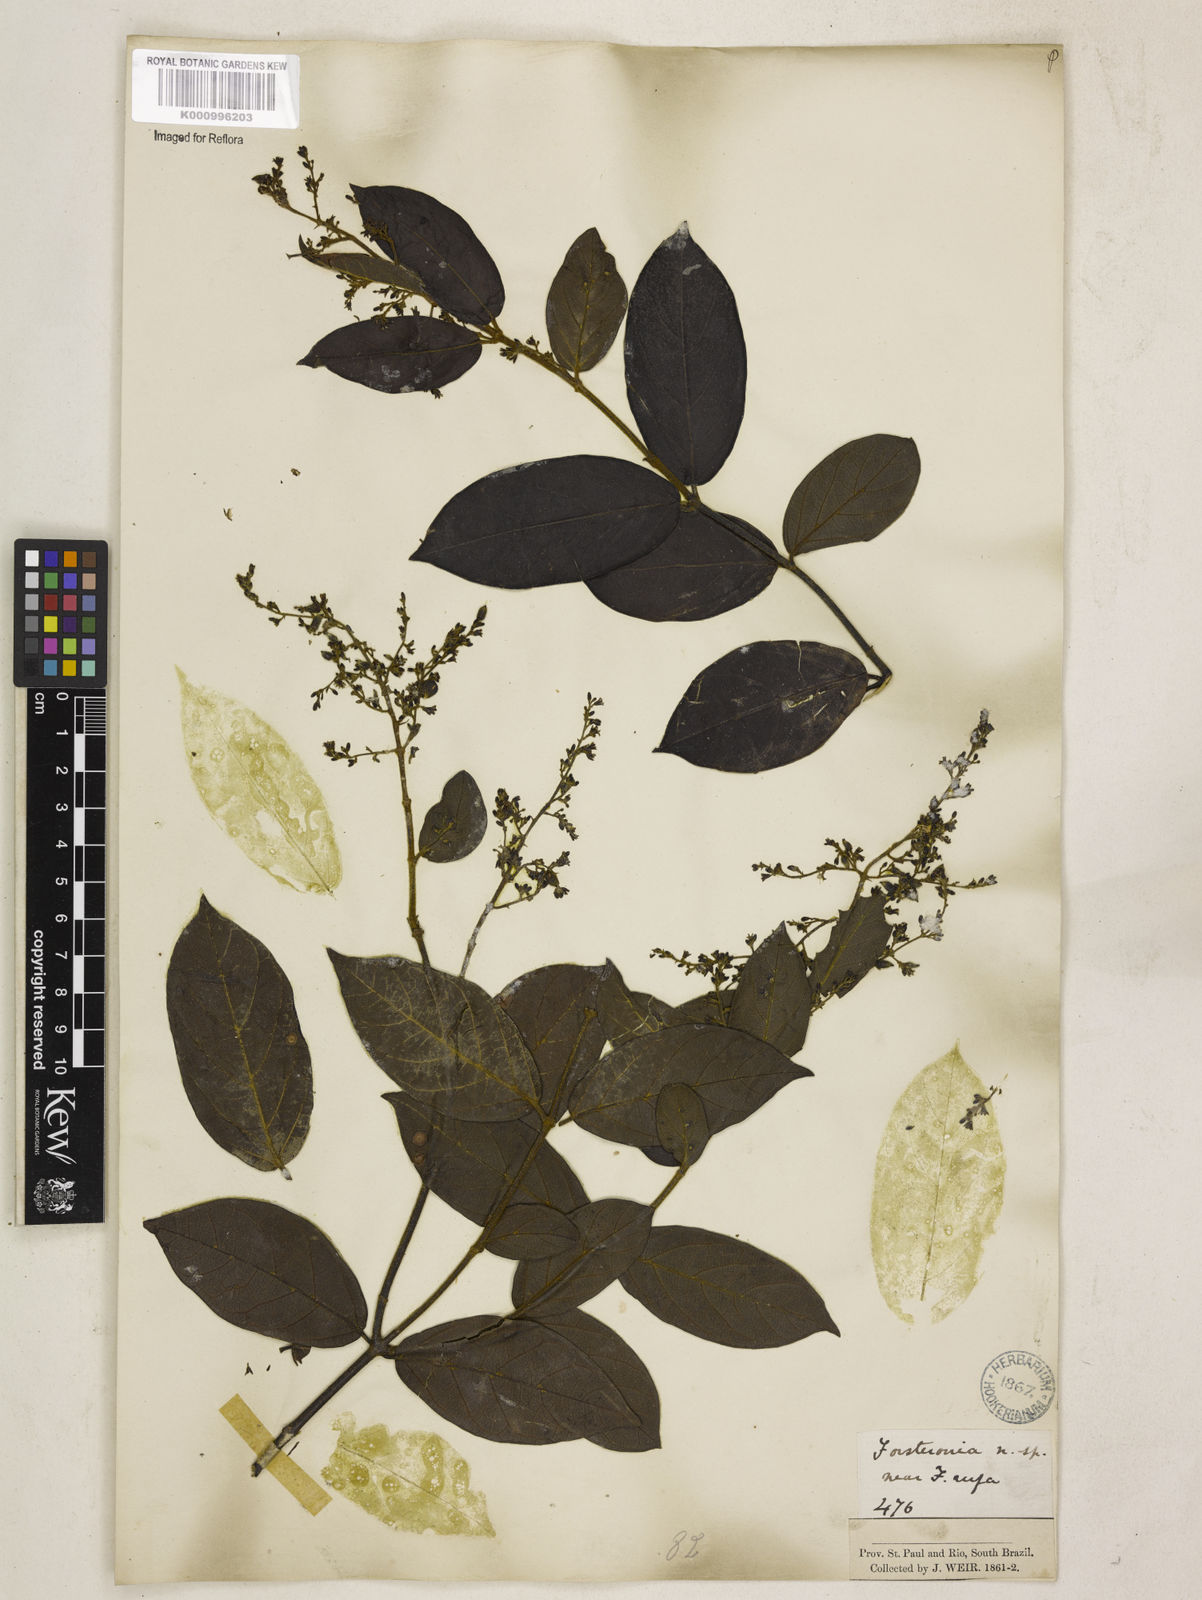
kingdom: Plantae
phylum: Tracheophyta
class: Magnoliopsida
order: Gentianales
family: Apocynaceae
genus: Forsteronia
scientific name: Forsteronia
